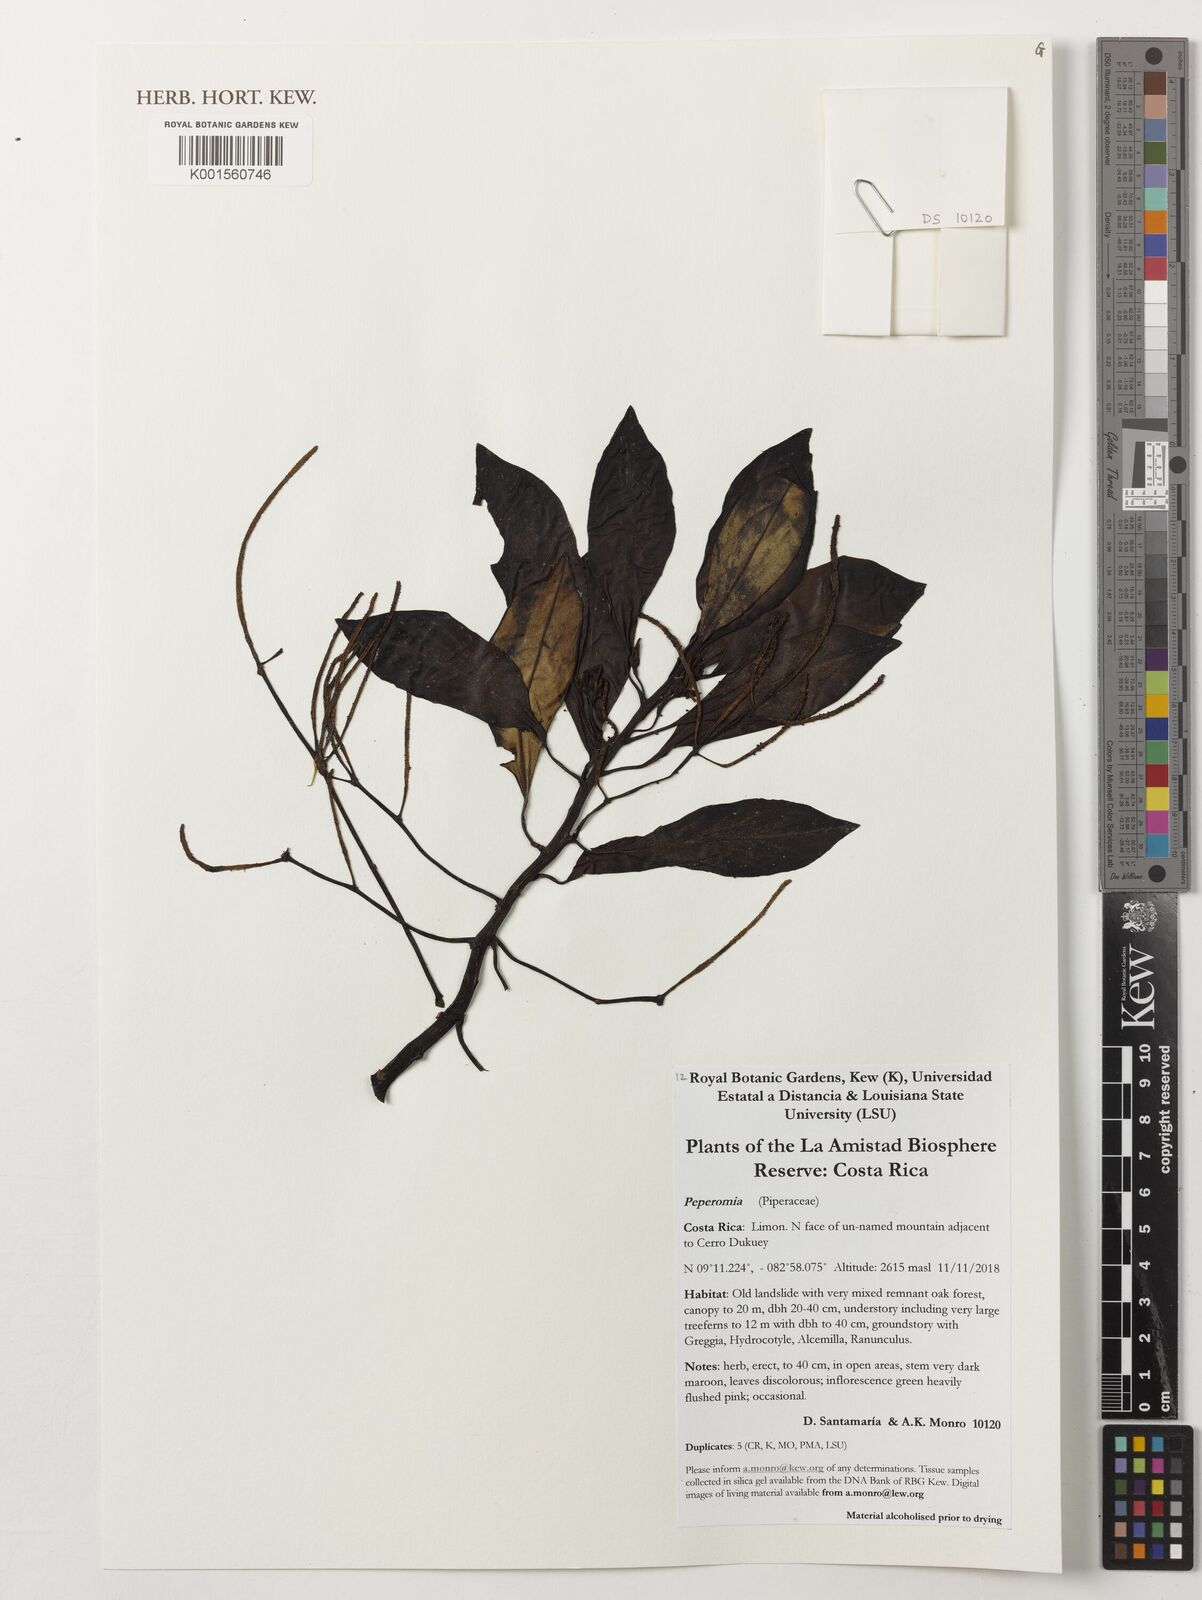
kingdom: Plantae
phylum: Tracheophyta
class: Magnoliopsida
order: Piperales
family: Piperaceae
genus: Peperomia
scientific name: Peperomia
